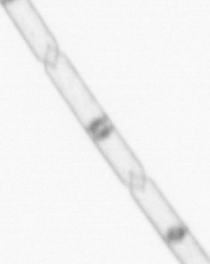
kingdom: Chromista
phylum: Ochrophyta
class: Bacillariophyceae
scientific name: Bacillariophyceae
